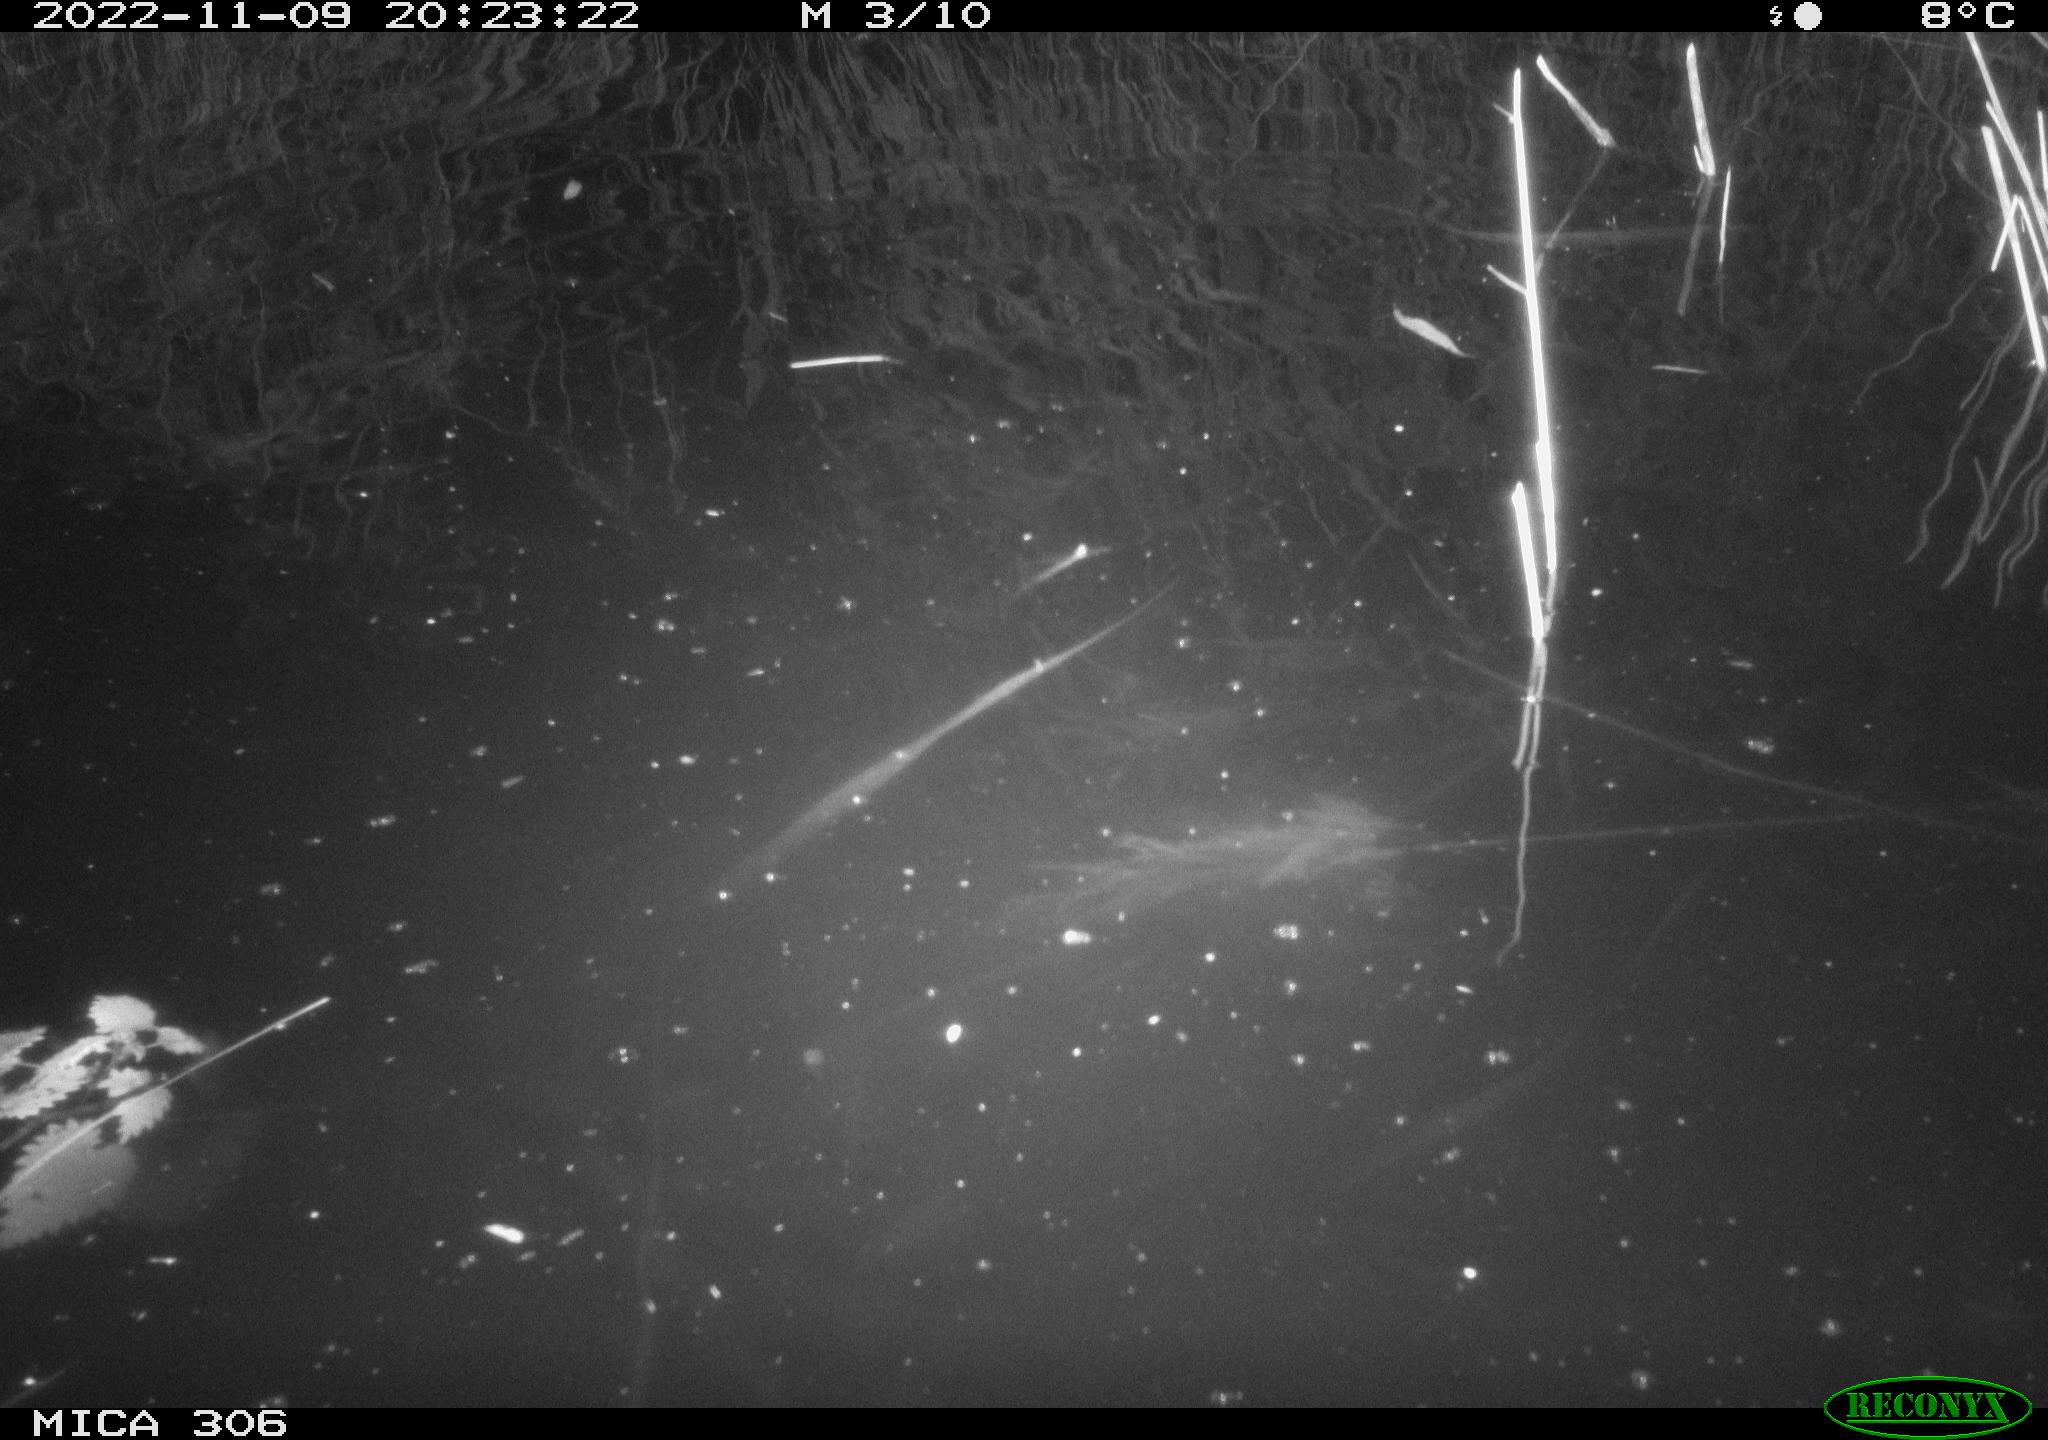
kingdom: Animalia
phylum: Chordata
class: Mammalia
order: Rodentia
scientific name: Rodentia
